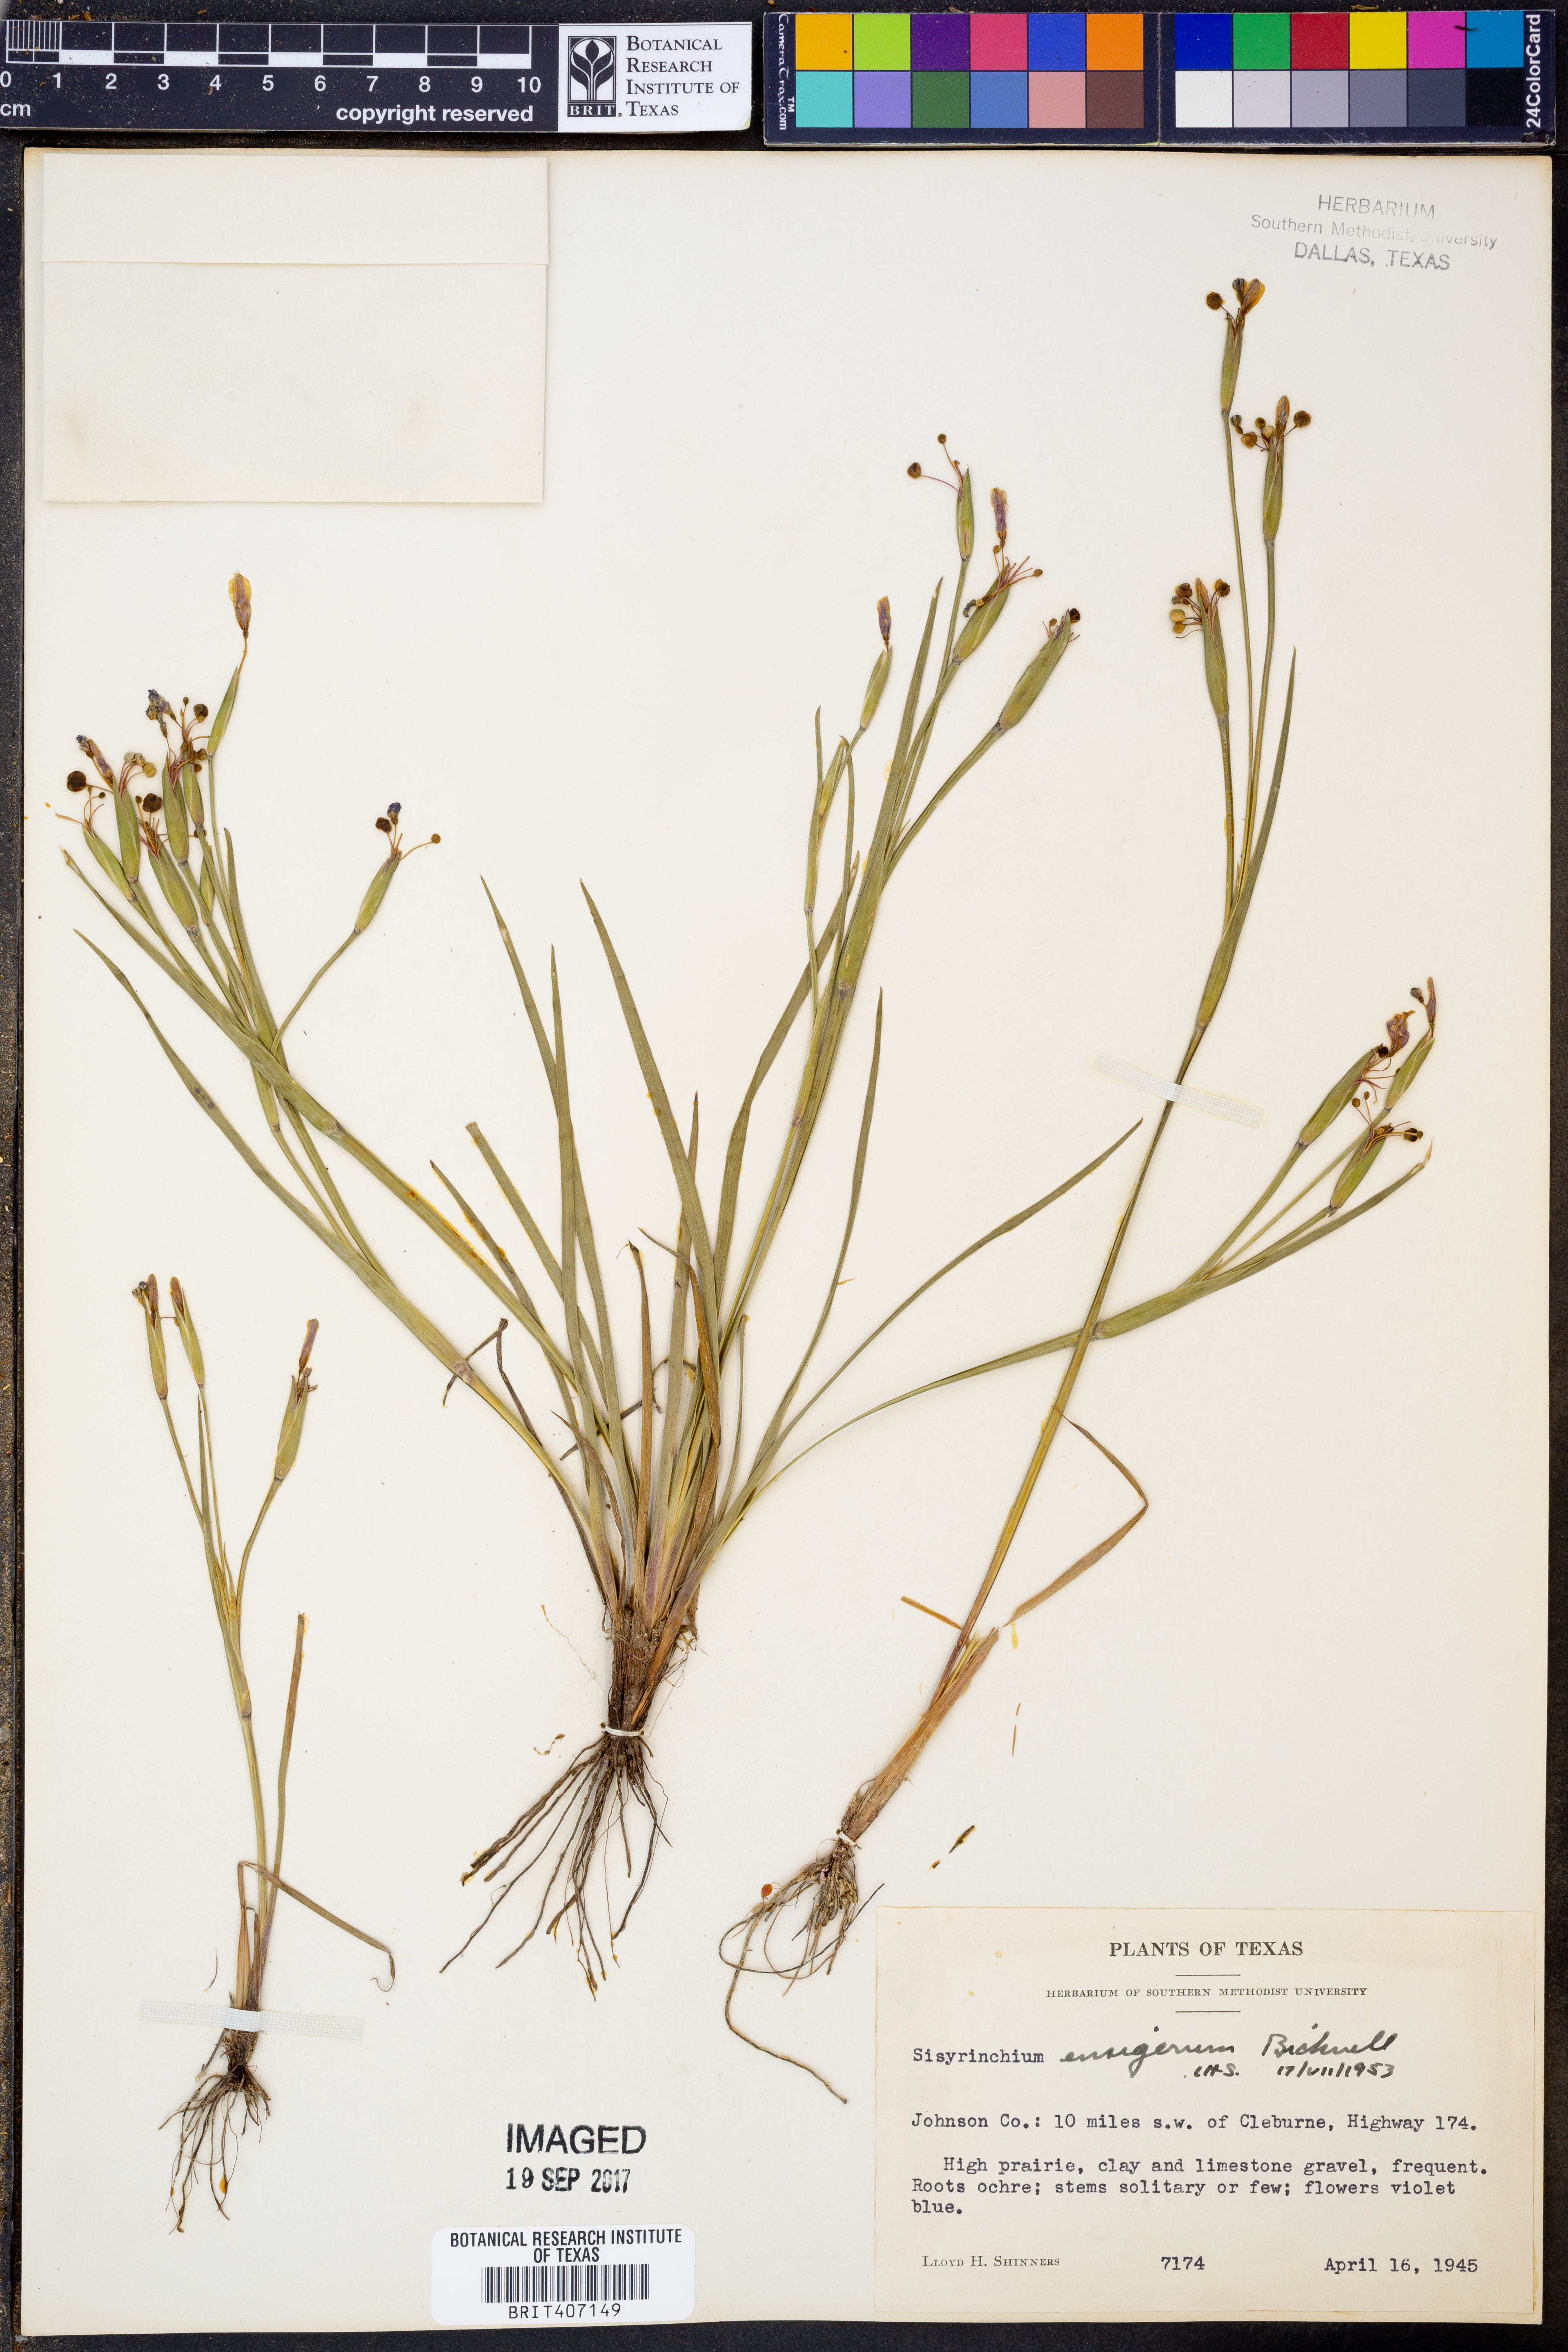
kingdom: Plantae
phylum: Tracheophyta
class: Liliopsida
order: Asparagales
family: Iridaceae
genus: Sisyrinchium
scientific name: Sisyrinchium ensigerum
